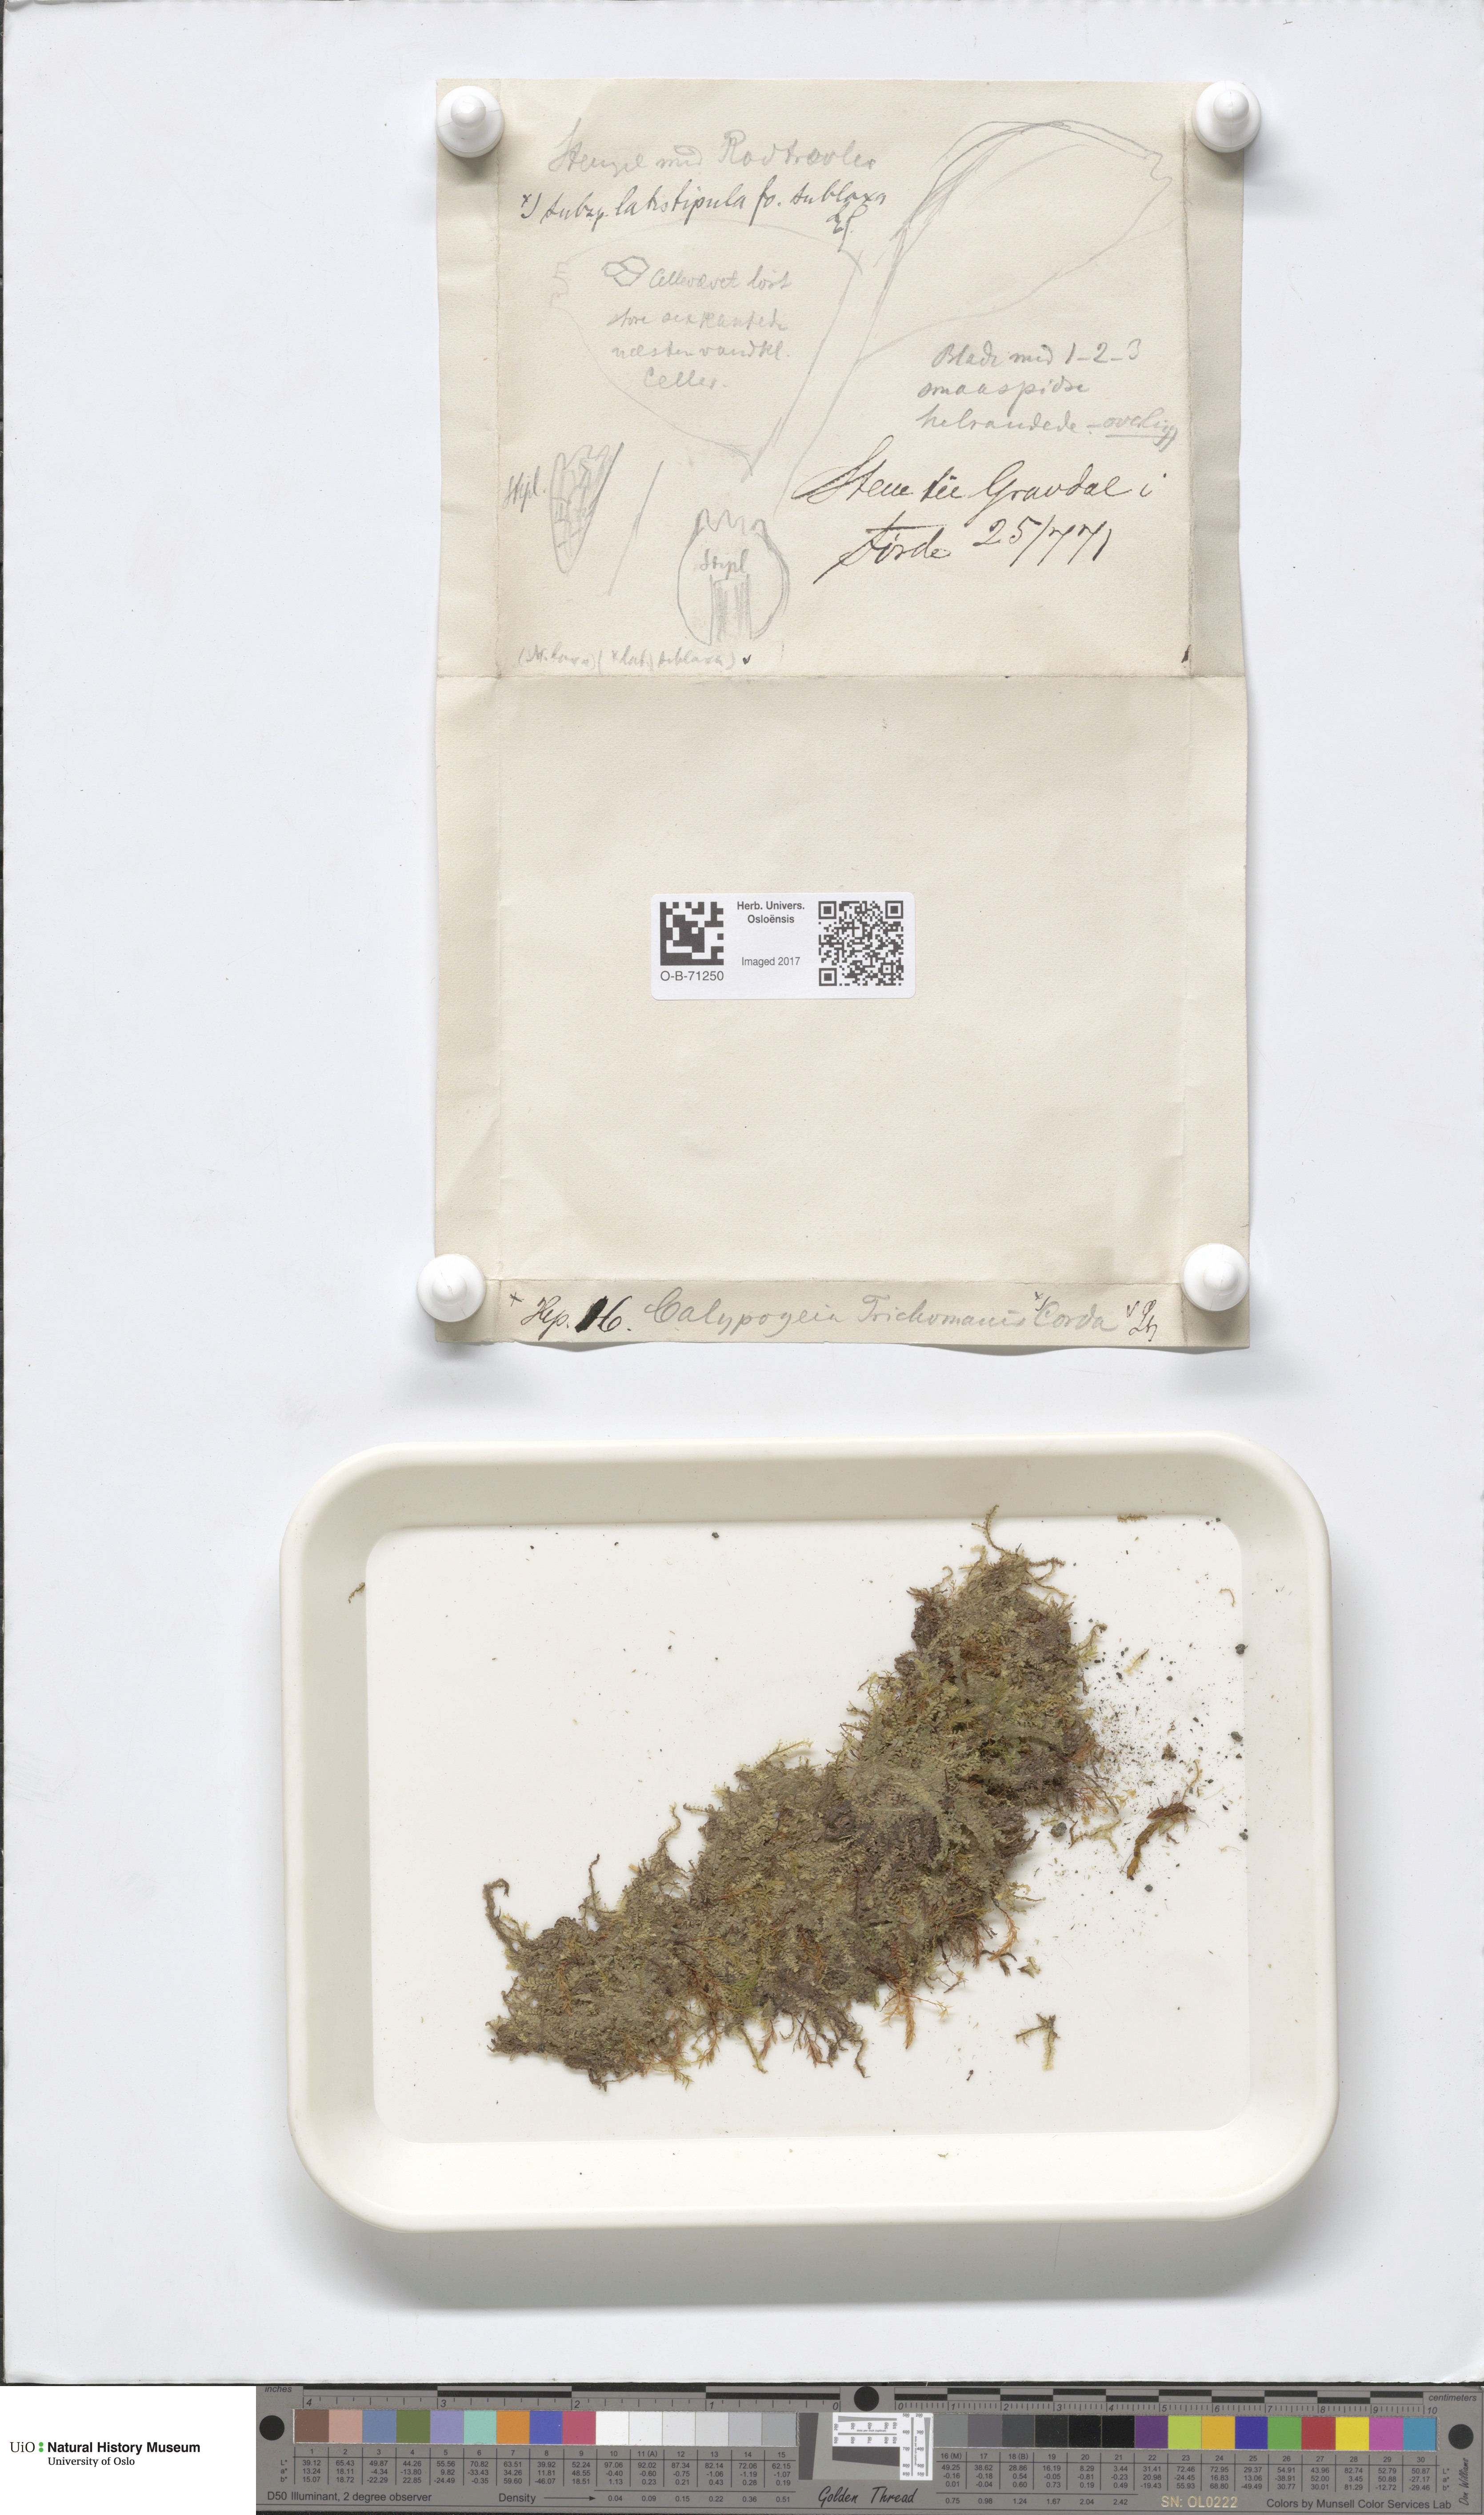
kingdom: Plantae
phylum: Marchantiophyta
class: Jungermanniopsida
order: Jungermanniales
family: Calypogeiaceae
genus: Calypogeia
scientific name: Calypogeia neesiana
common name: Nees  pouchwort
